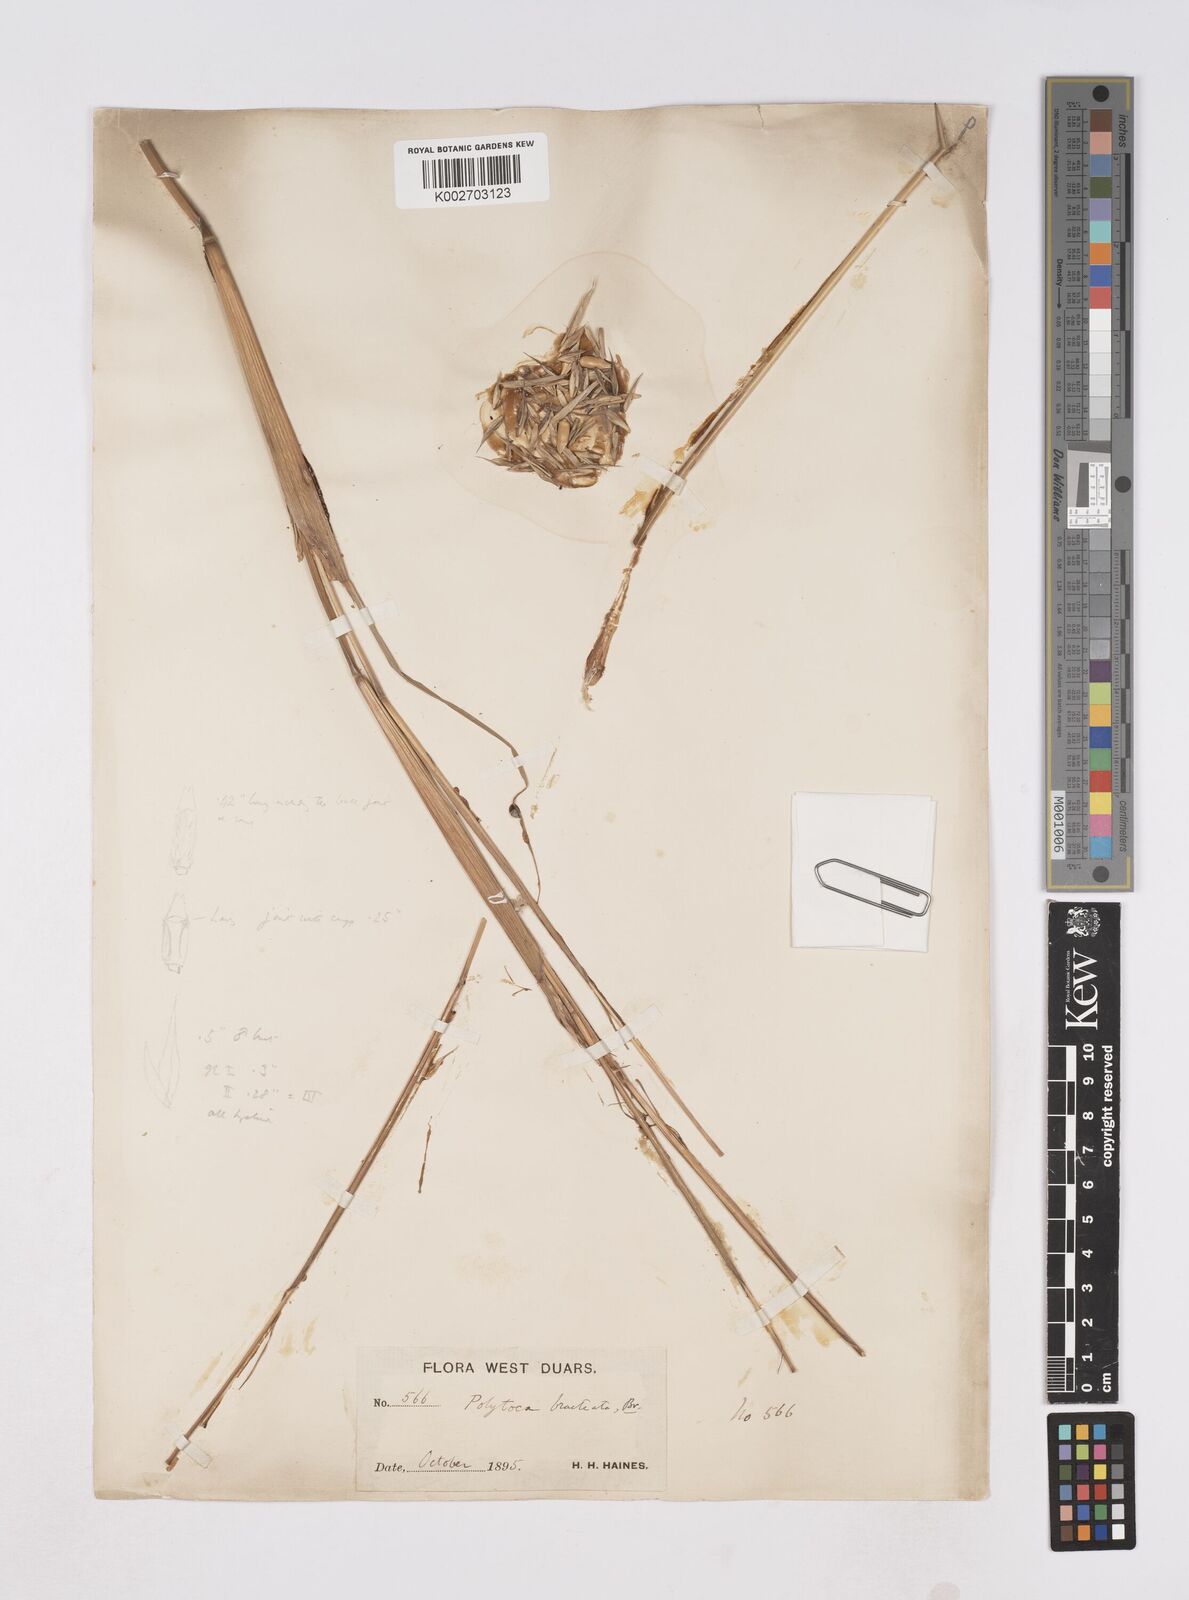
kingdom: Plantae
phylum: Tracheophyta
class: Liliopsida
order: Poales
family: Poaceae
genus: Polytoca
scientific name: Polytoca digitata
